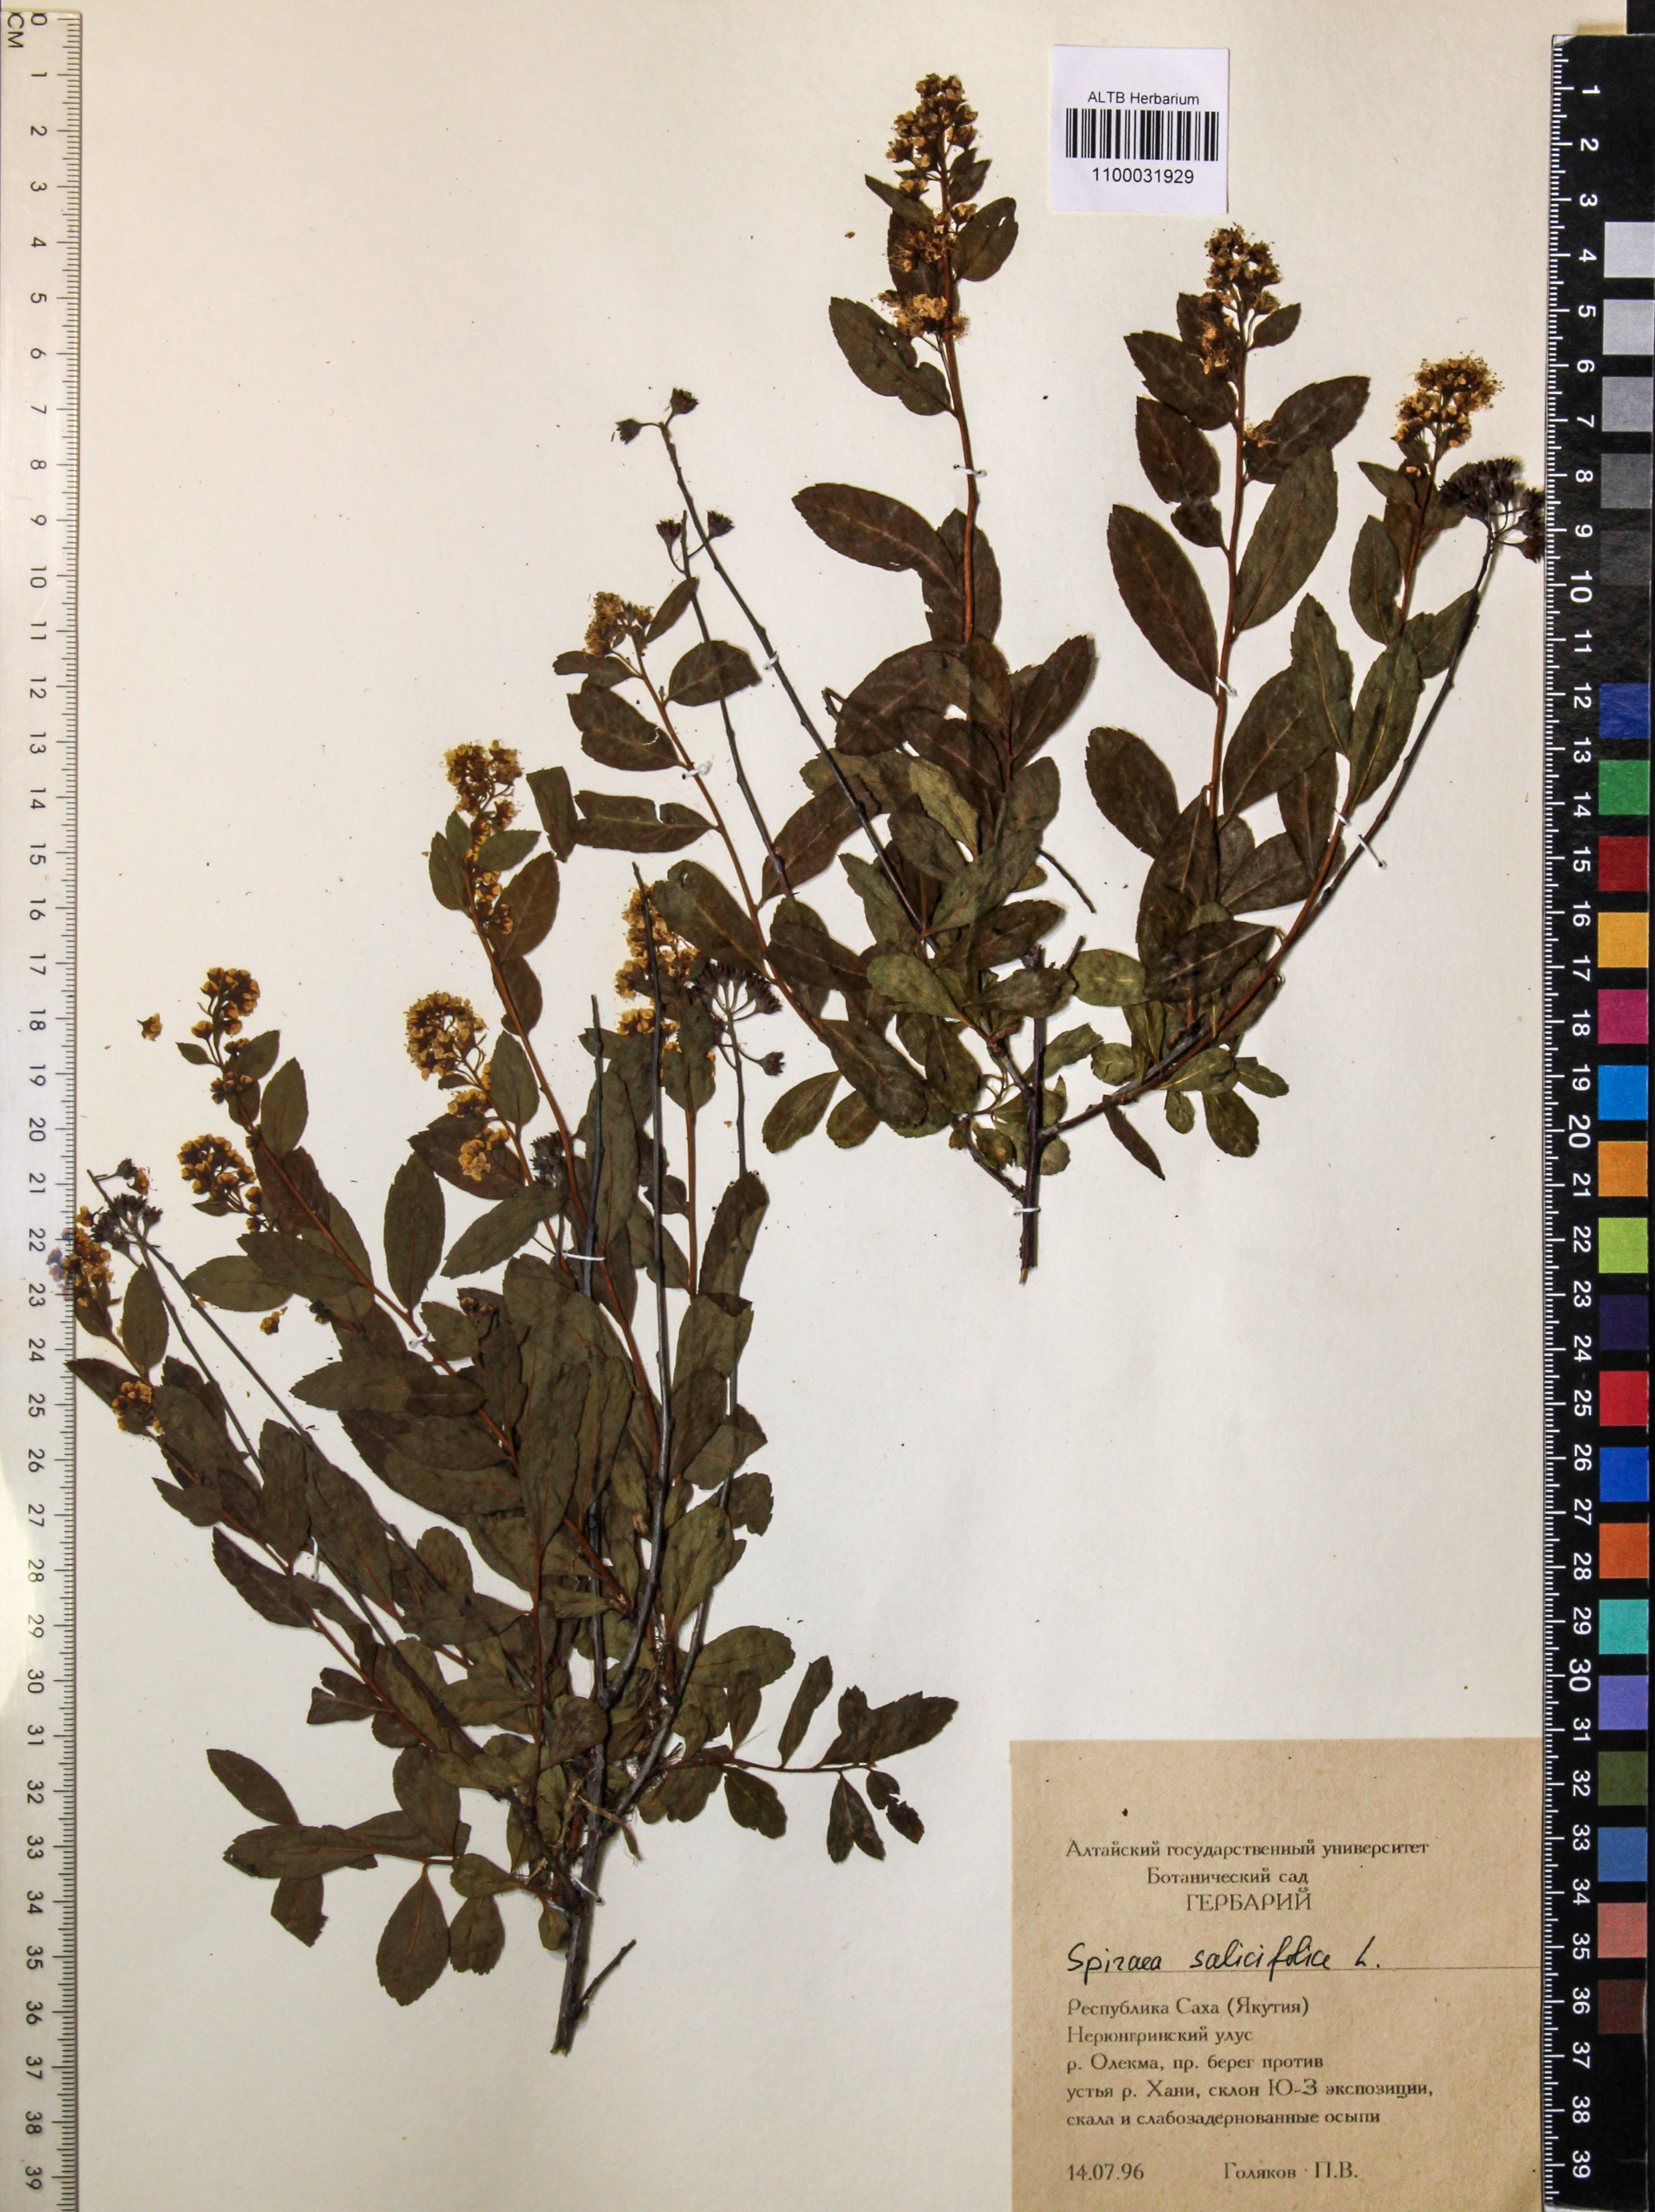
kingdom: Plantae
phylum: Tracheophyta
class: Magnoliopsida
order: Rosales
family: Rosaceae
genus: Spiraea
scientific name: Spiraea salicifolia
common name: Bridewort
